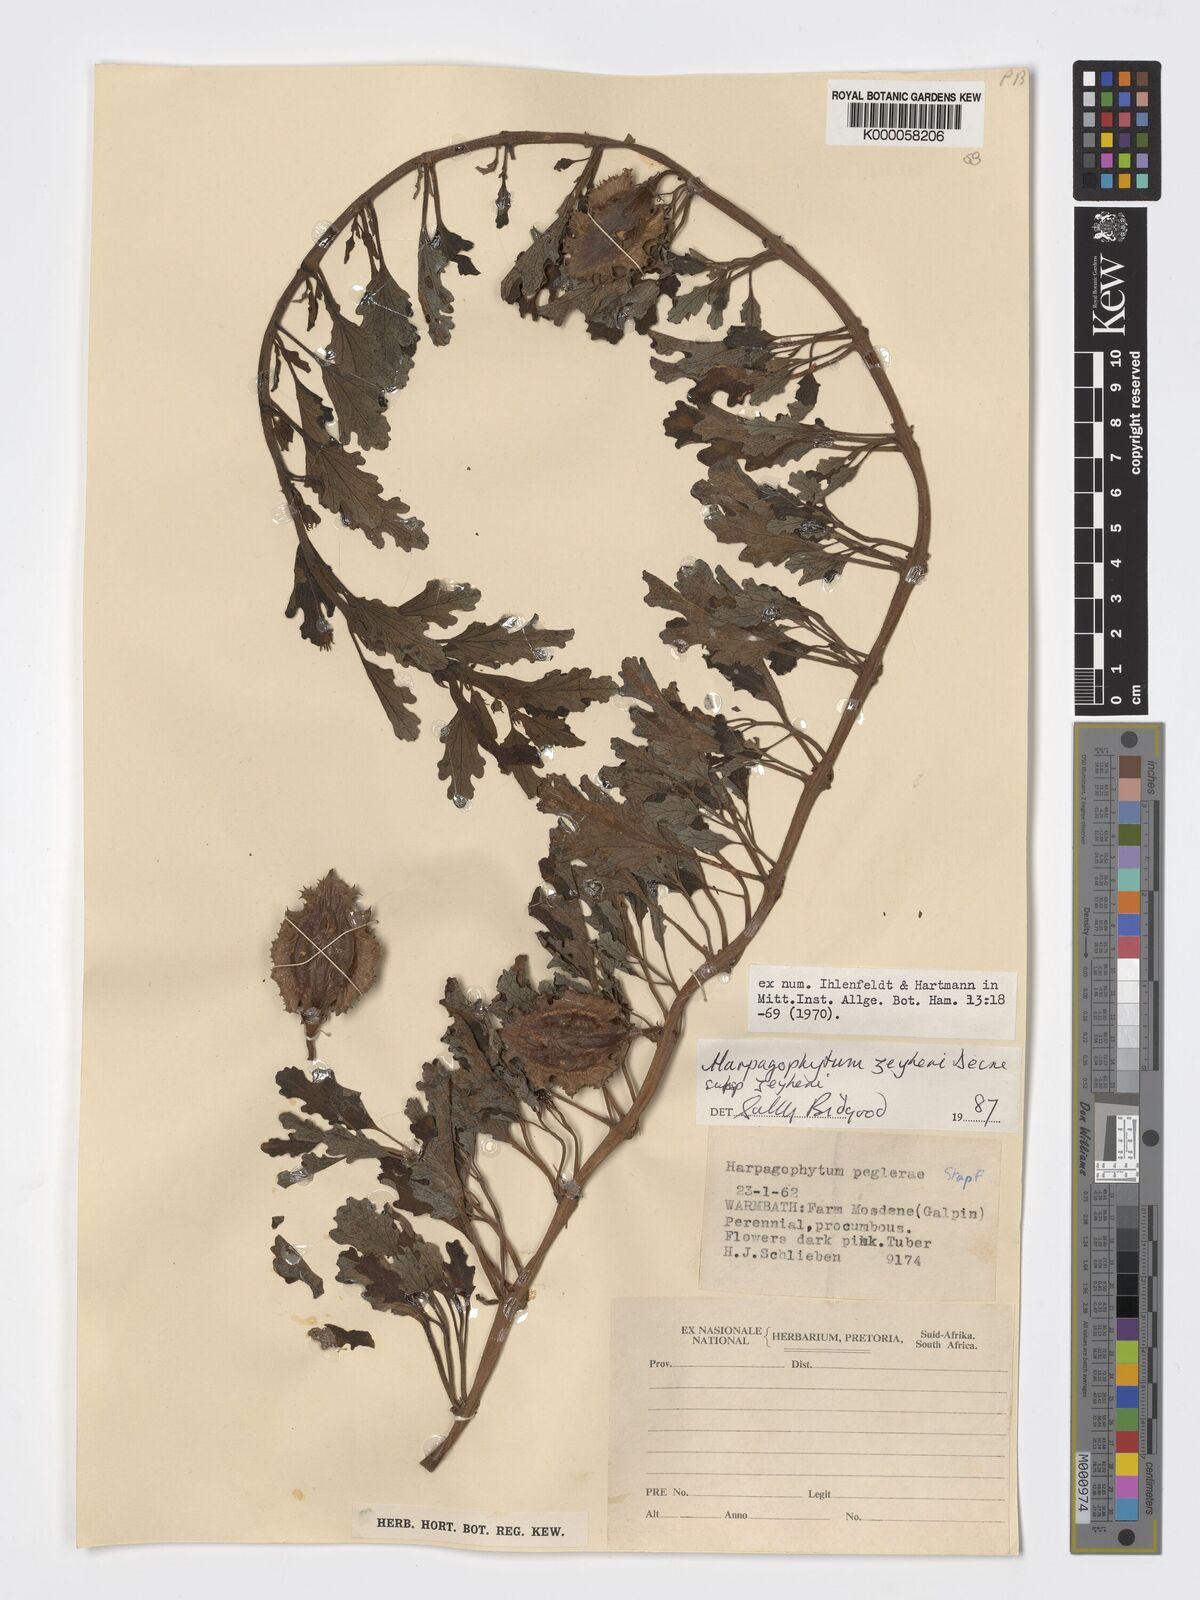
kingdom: Plantae
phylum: Tracheophyta
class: Magnoliopsida
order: Lamiales
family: Pedaliaceae
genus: Harpagophytum
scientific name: Harpagophytum zeyheri
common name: Grappleplant
